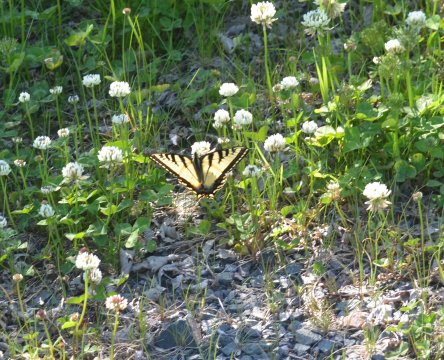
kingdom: Animalia
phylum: Arthropoda
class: Insecta
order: Lepidoptera
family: Papilionidae
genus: Pterourus
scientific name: Pterourus glaucus
